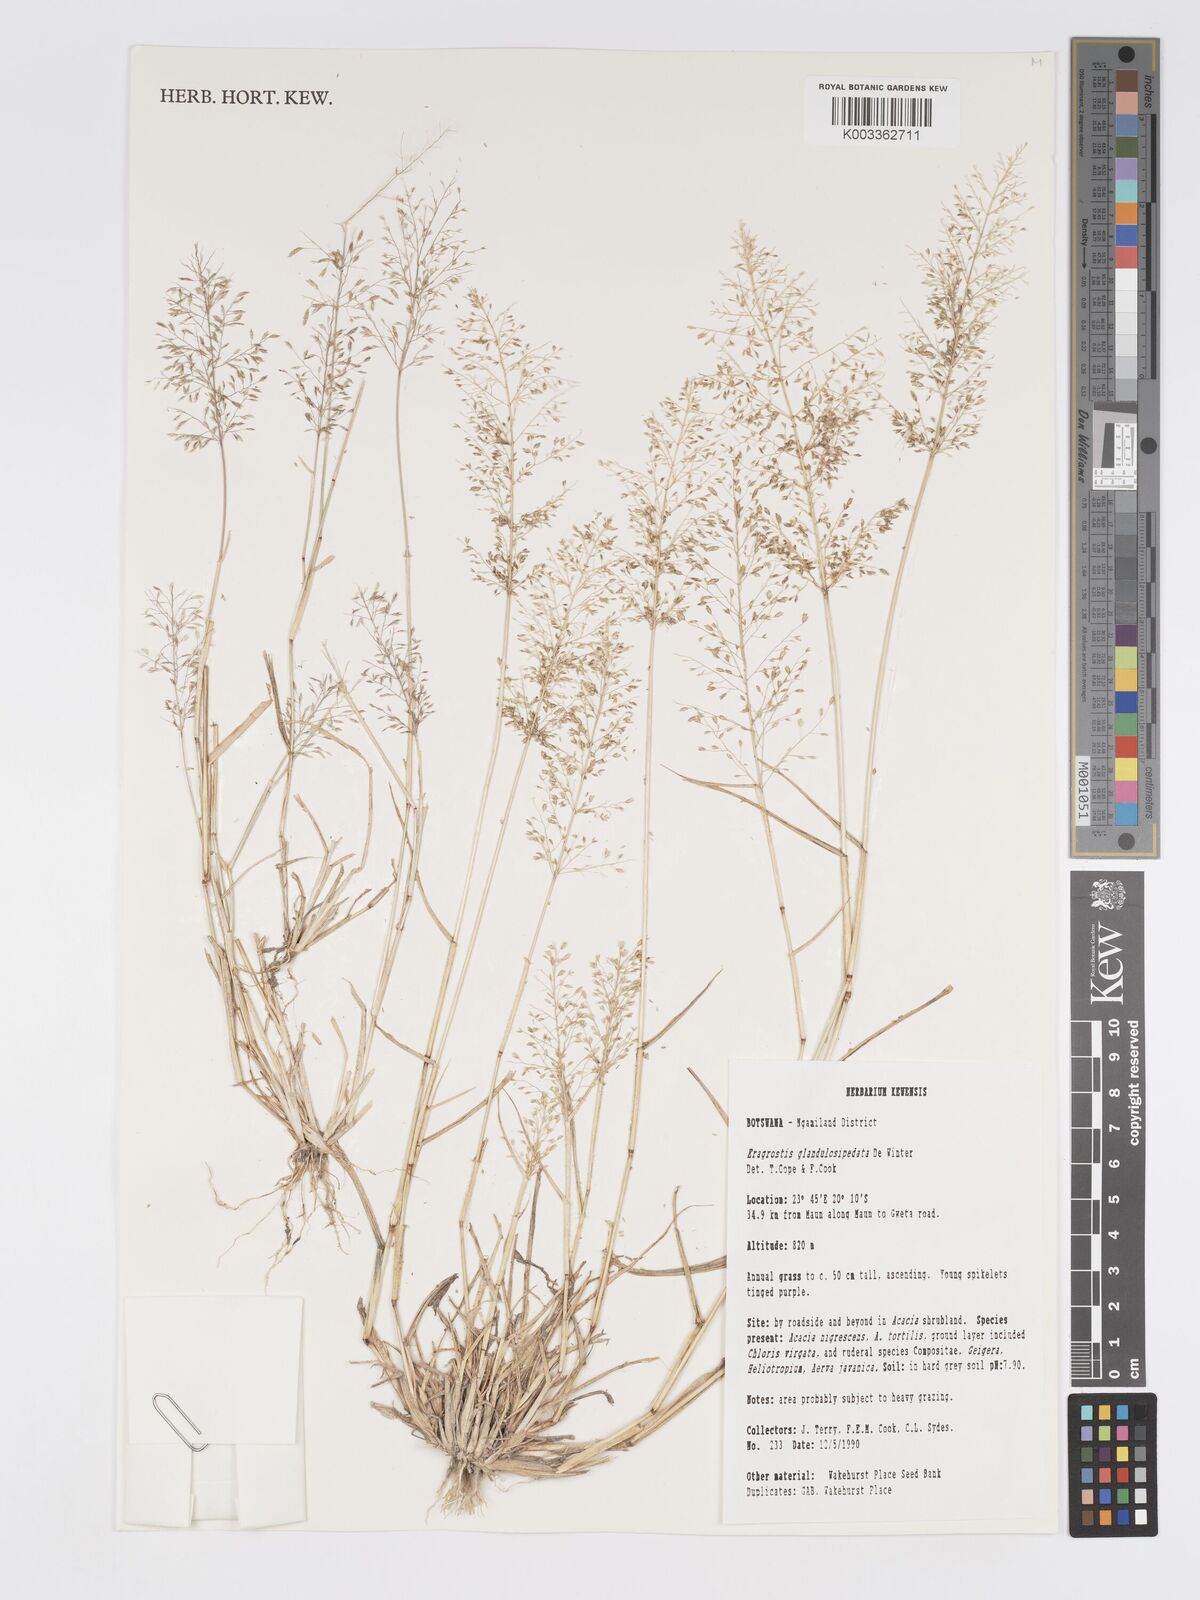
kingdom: Plantae
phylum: Tracheophyta
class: Liliopsida
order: Poales
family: Poaceae
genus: Eragrostis
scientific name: Eragrostis glandulosipedata
